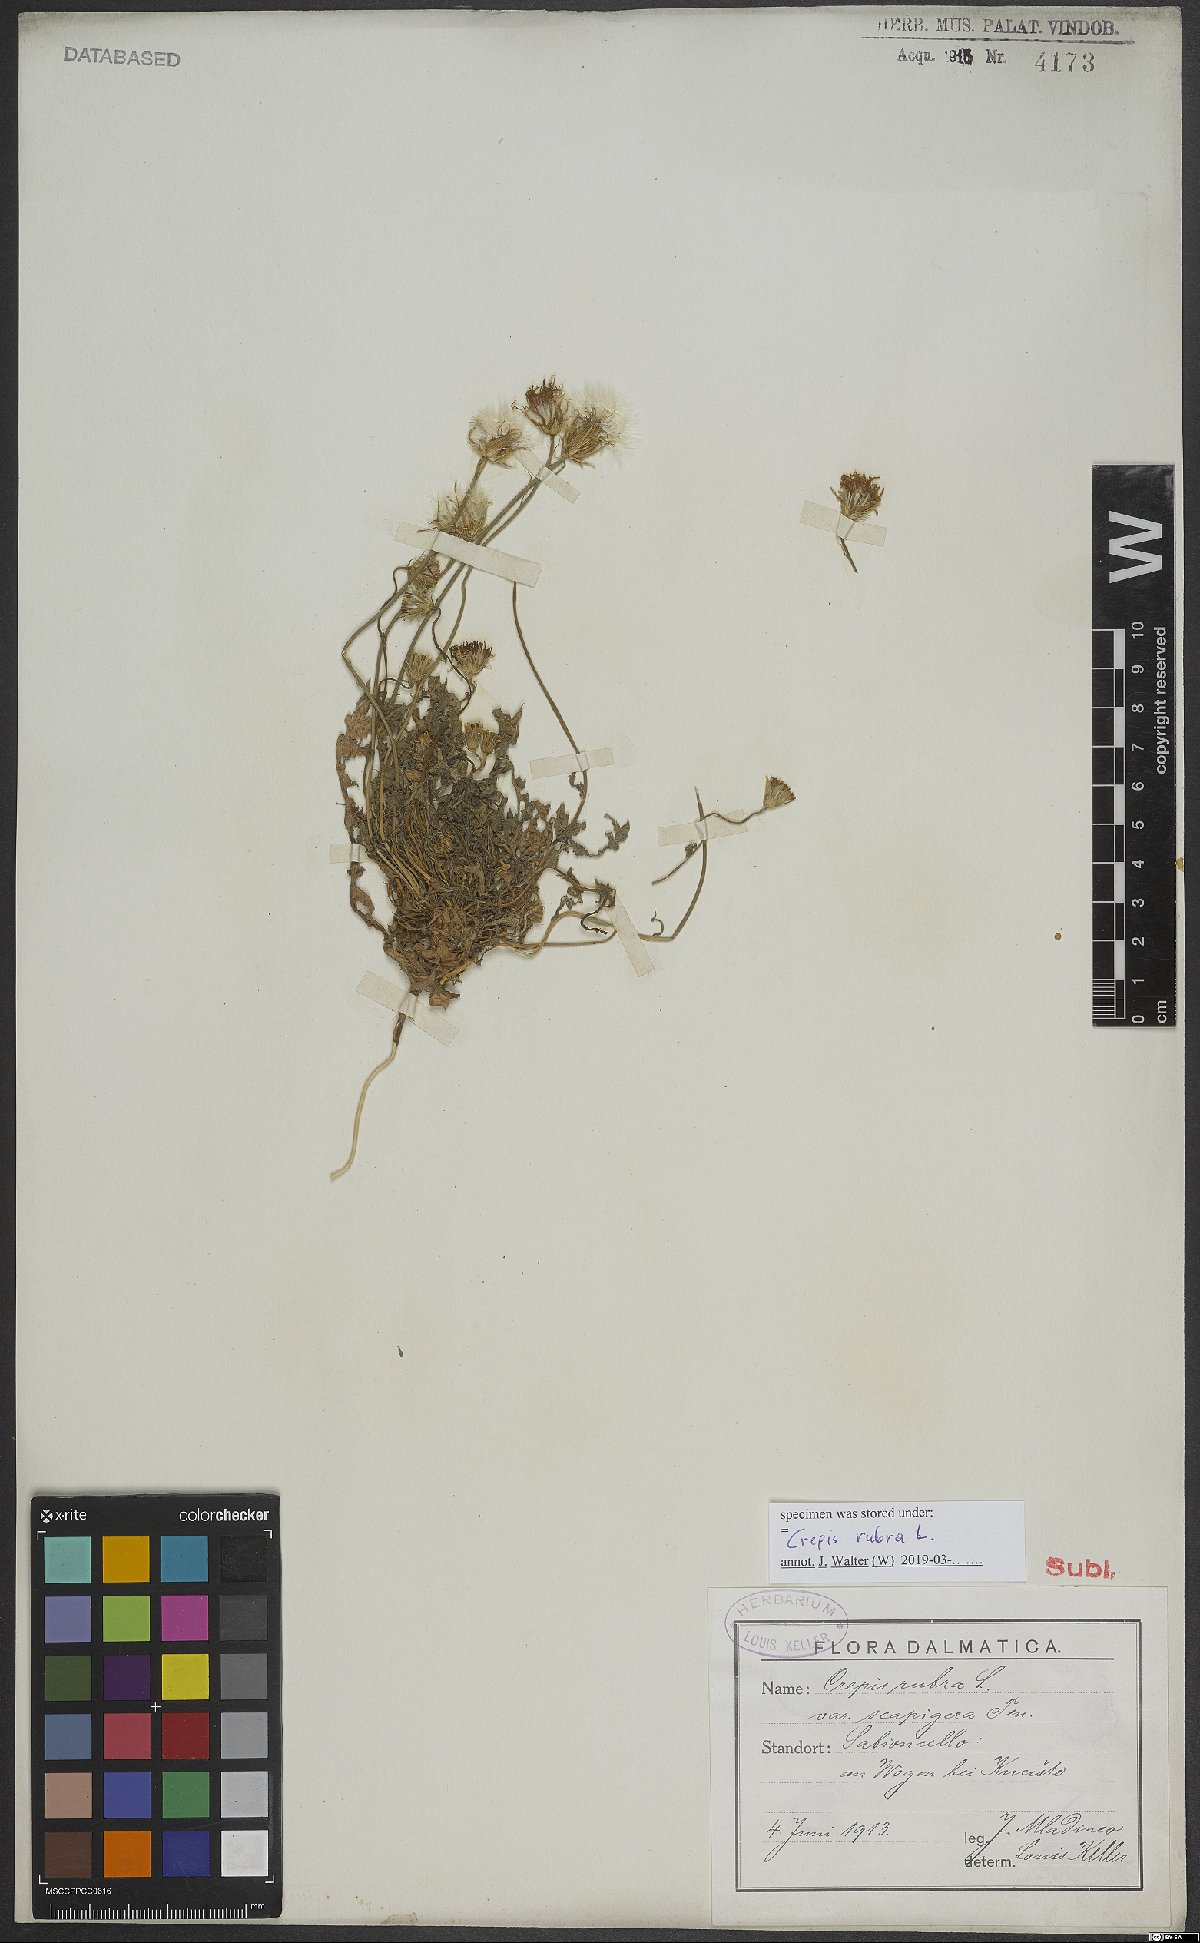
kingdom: Plantae
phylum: Tracheophyta
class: Magnoliopsida
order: Asterales
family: Asteraceae
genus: Crepis
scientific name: Crepis rubra
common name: Pink hawk's-beard
